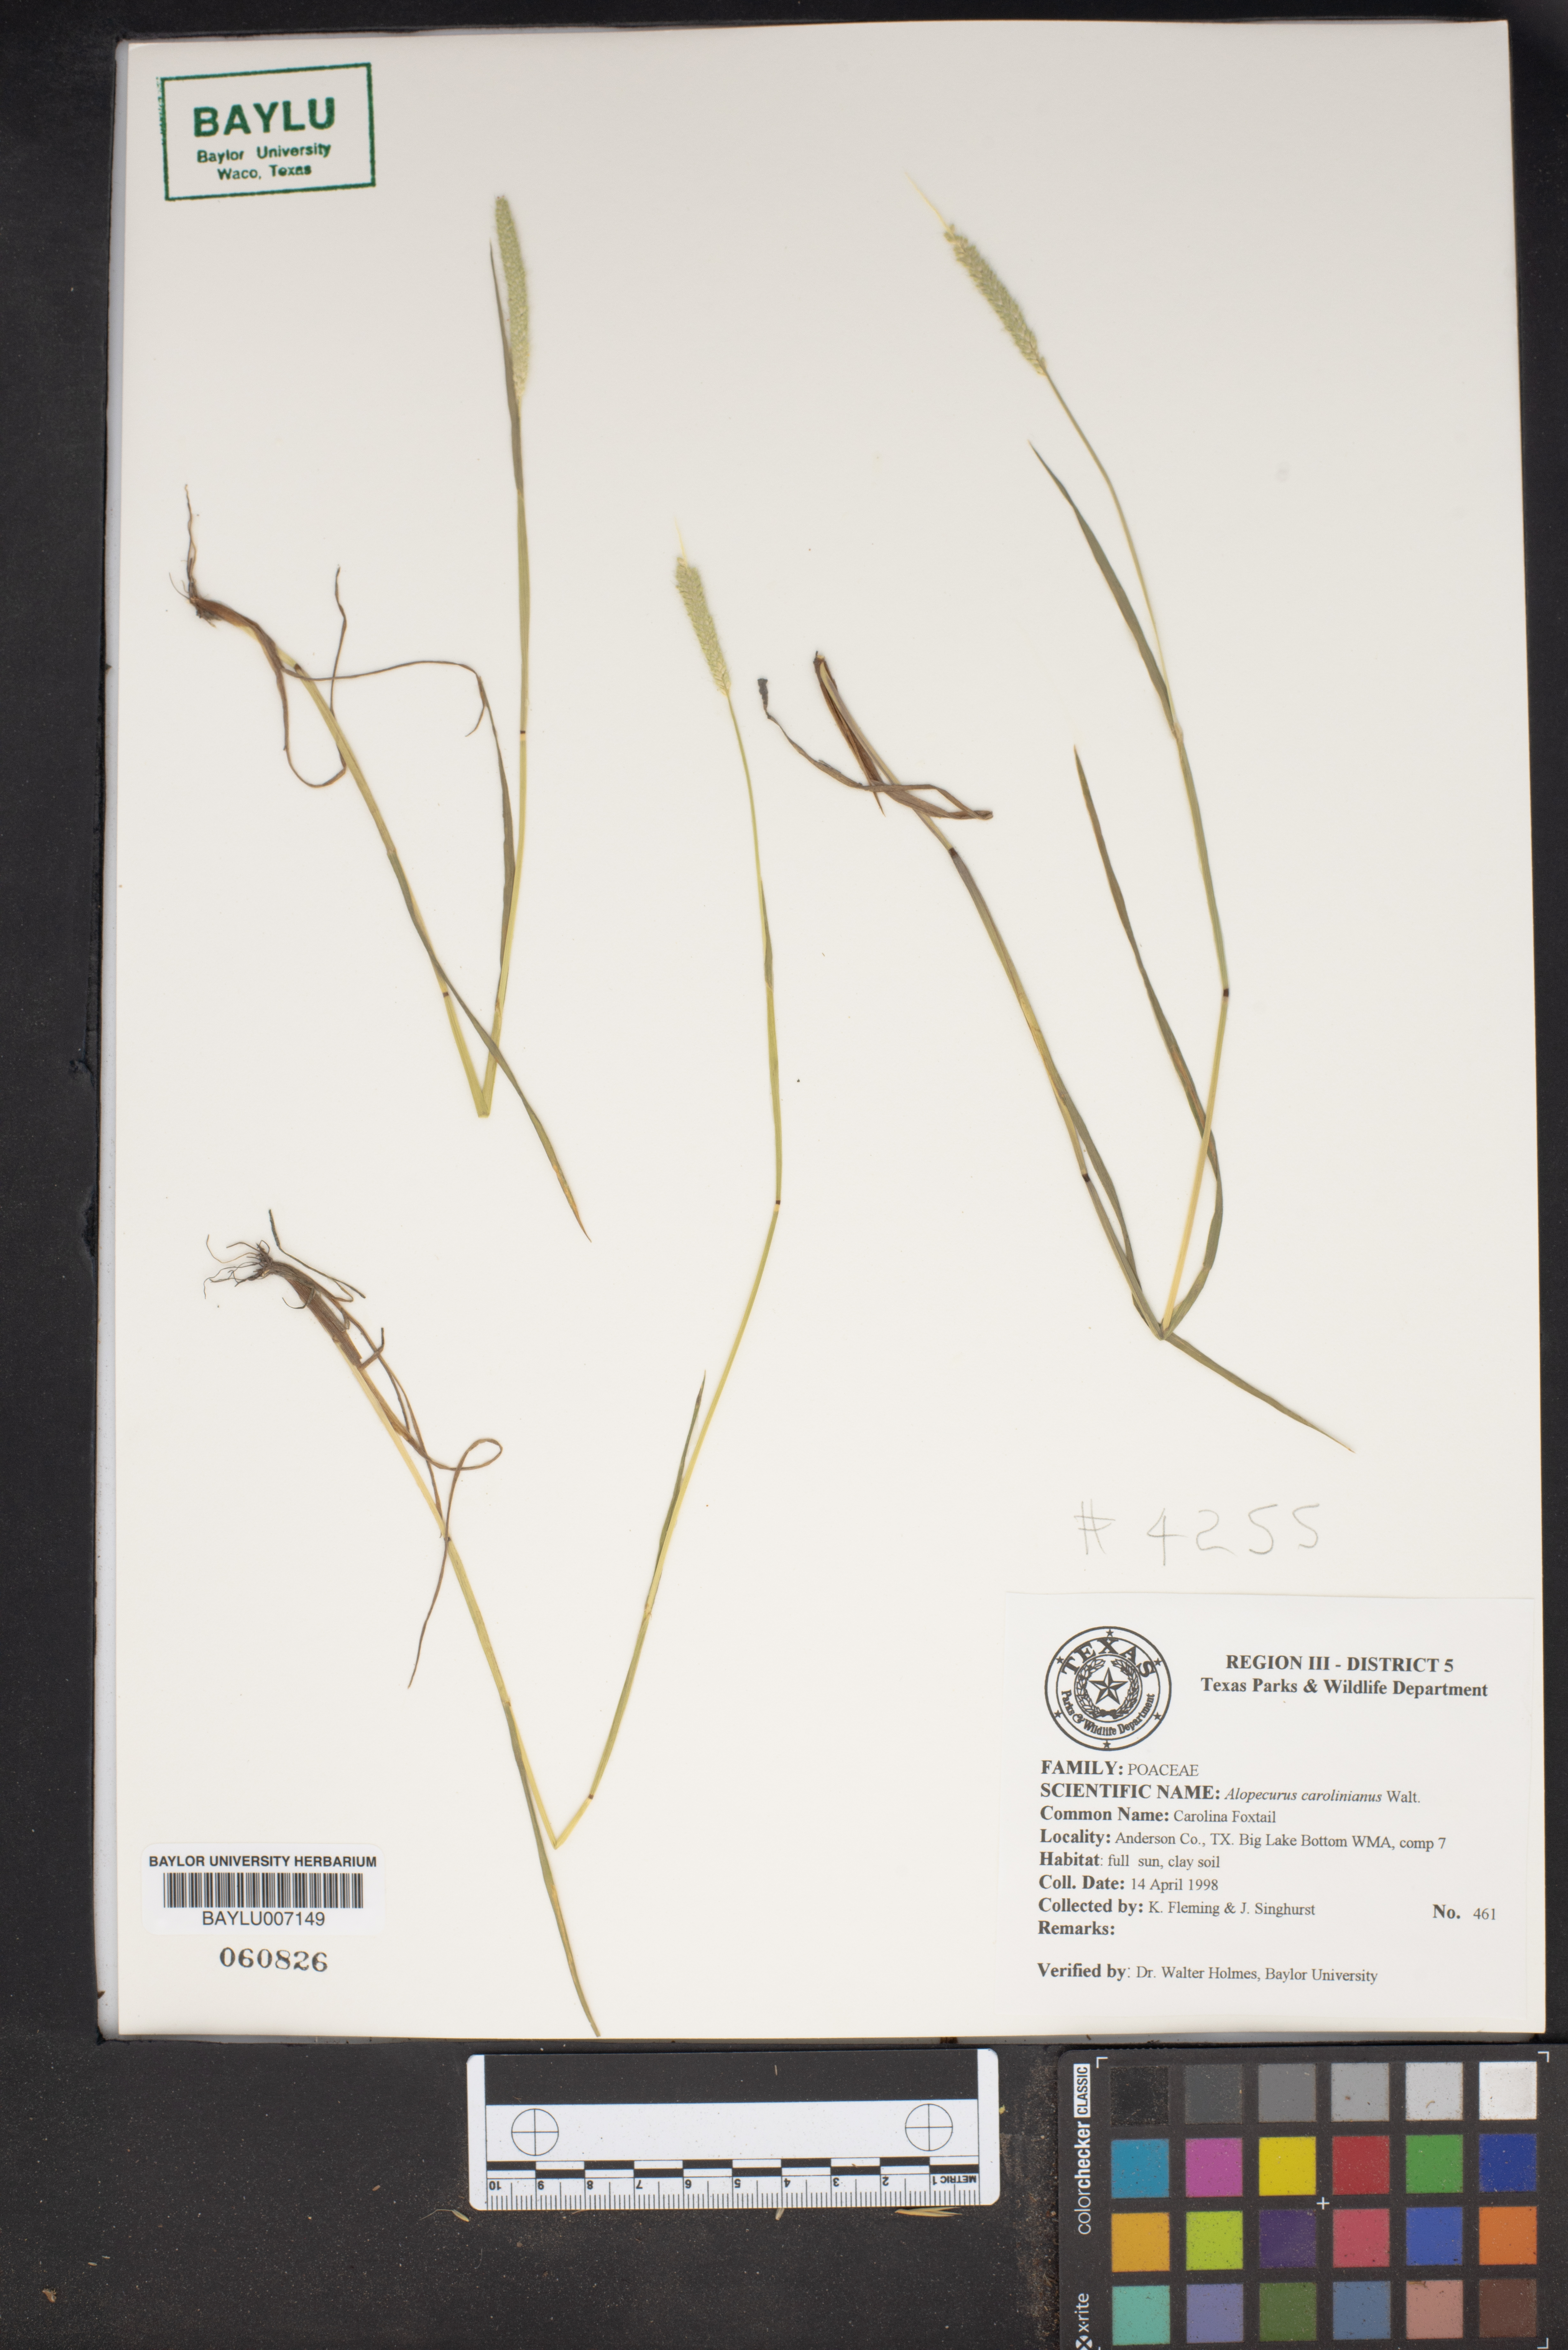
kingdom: Plantae
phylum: Tracheophyta
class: Liliopsida
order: Poales
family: Poaceae
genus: Alopecurus
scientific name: Alopecurus carolinianus
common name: Tufted foxtail
